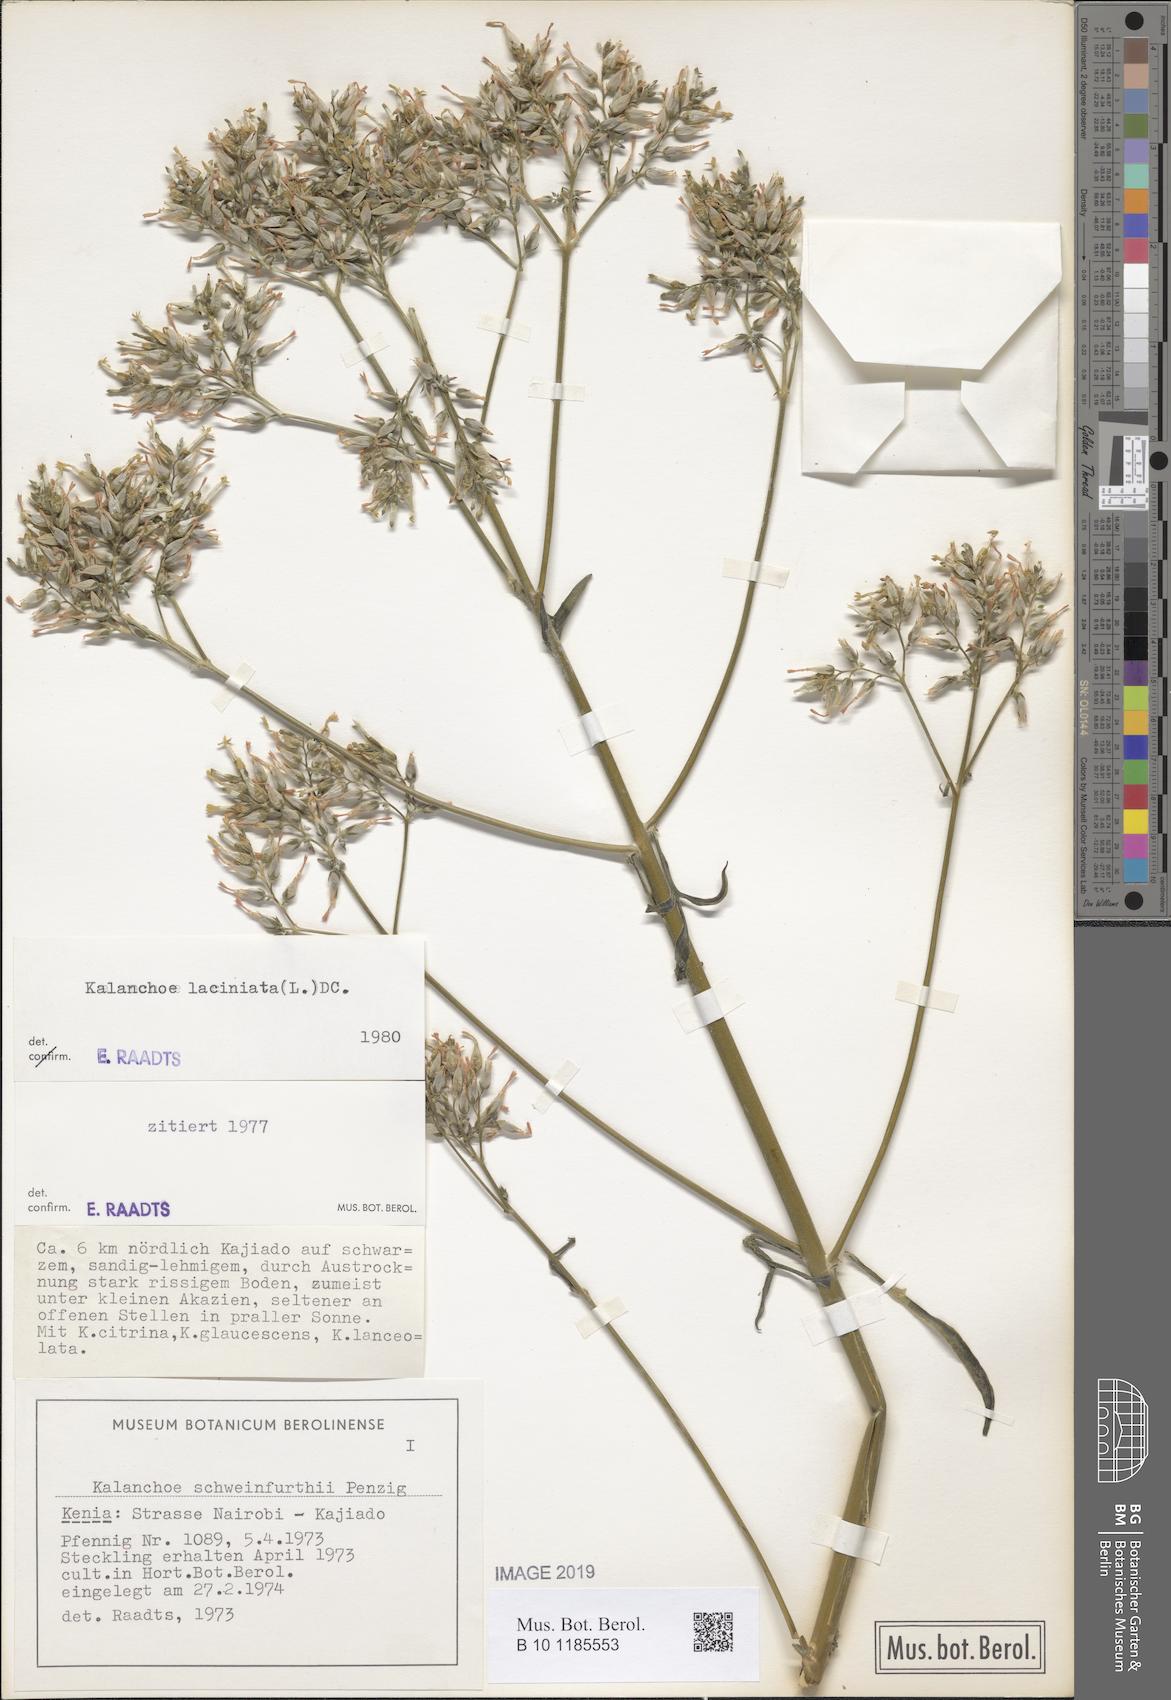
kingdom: Plantae
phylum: Tracheophyta
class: Magnoliopsida
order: Saxifragales
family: Crassulaceae
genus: Kalanchoe
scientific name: Kalanchoe laciniata
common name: Christmastree plant
